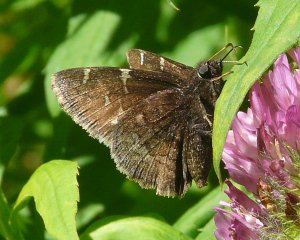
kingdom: Animalia
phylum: Arthropoda
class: Insecta
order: Lepidoptera
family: Hesperiidae
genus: Autochton
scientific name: Autochton
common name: Northern Cloudywing
